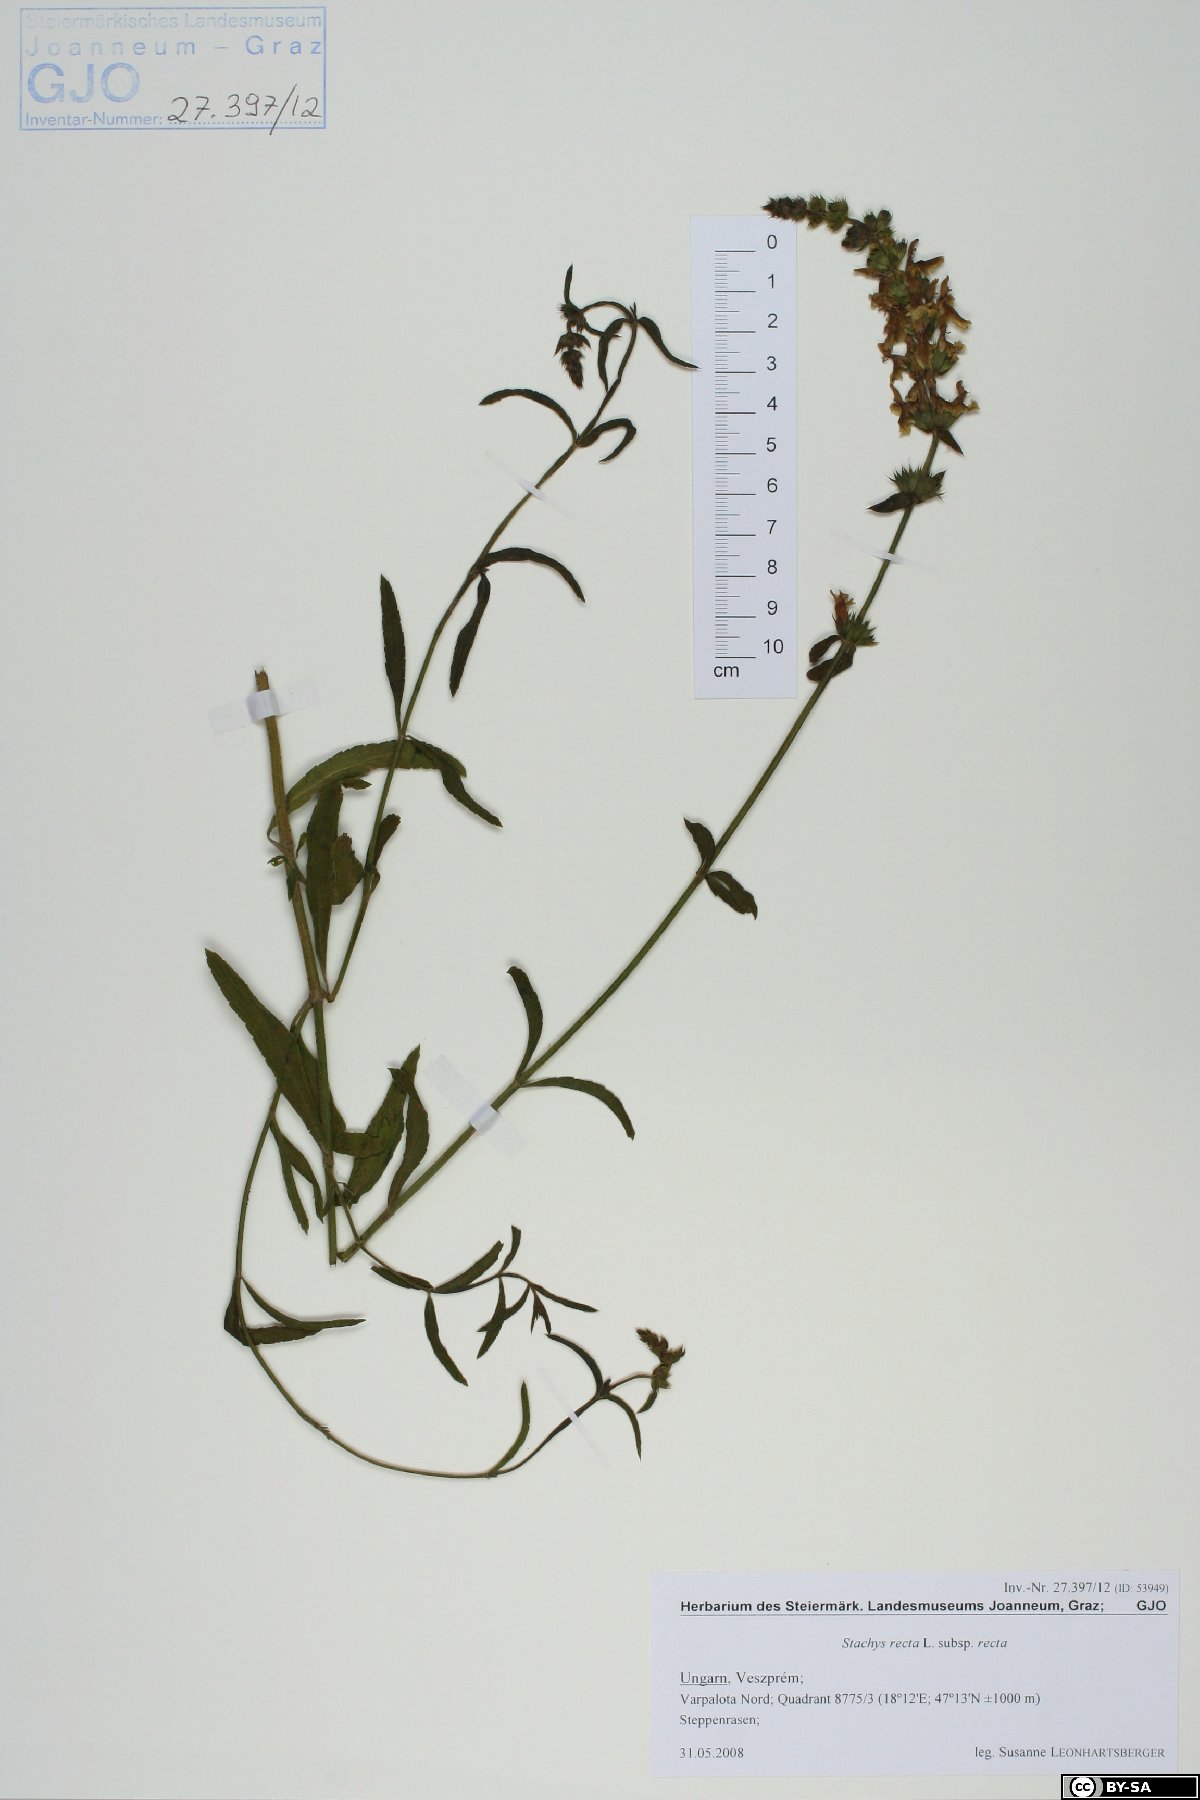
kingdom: Plantae
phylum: Tracheophyta
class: Magnoliopsida
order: Lamiales
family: Lamiaceae
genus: Stachys
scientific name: Stachys recta
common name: Perennial yellow-woundwort
